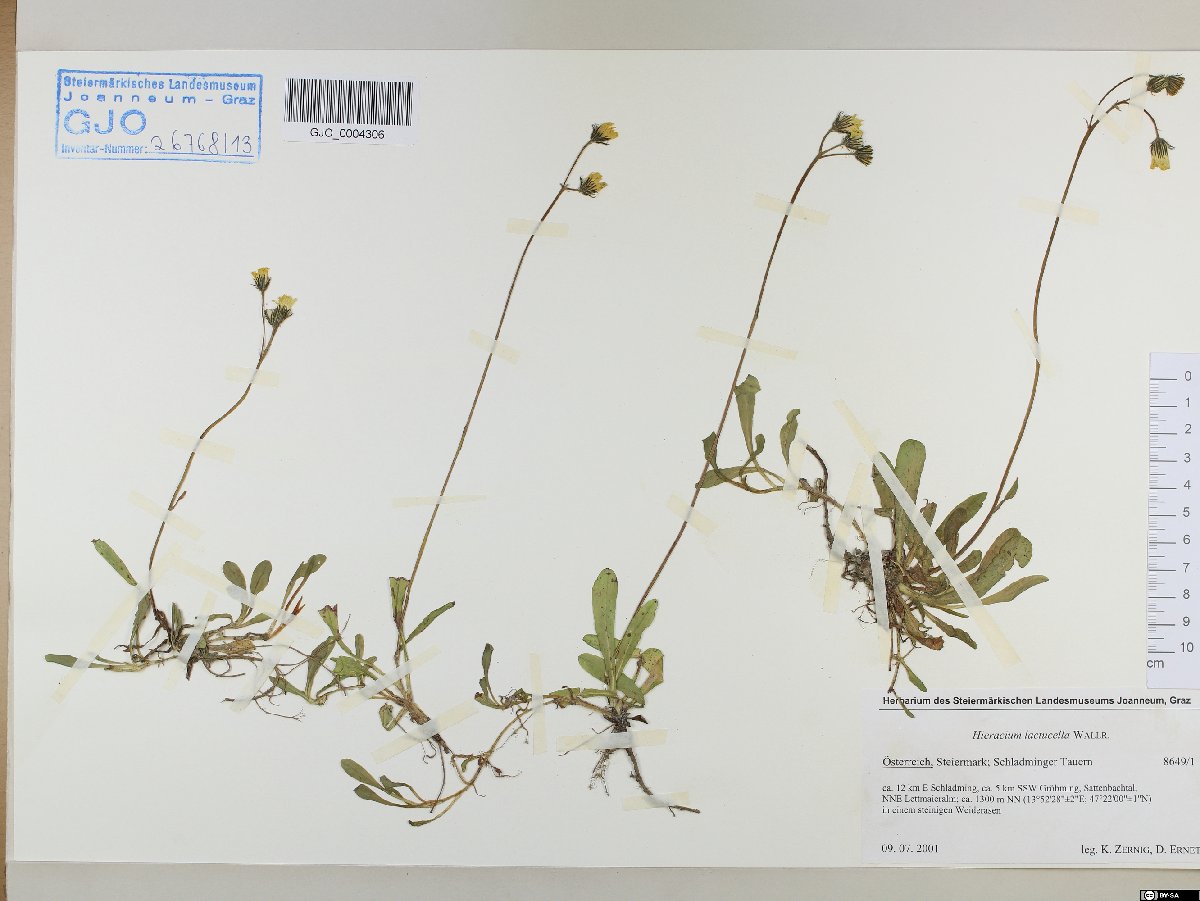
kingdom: Plantae
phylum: Tracheophyta
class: Magnoliopsida
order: Asterales
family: Asteraceae
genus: Pilosella
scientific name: Pilosella lactucella
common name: Glaucous fox-and-cubs
